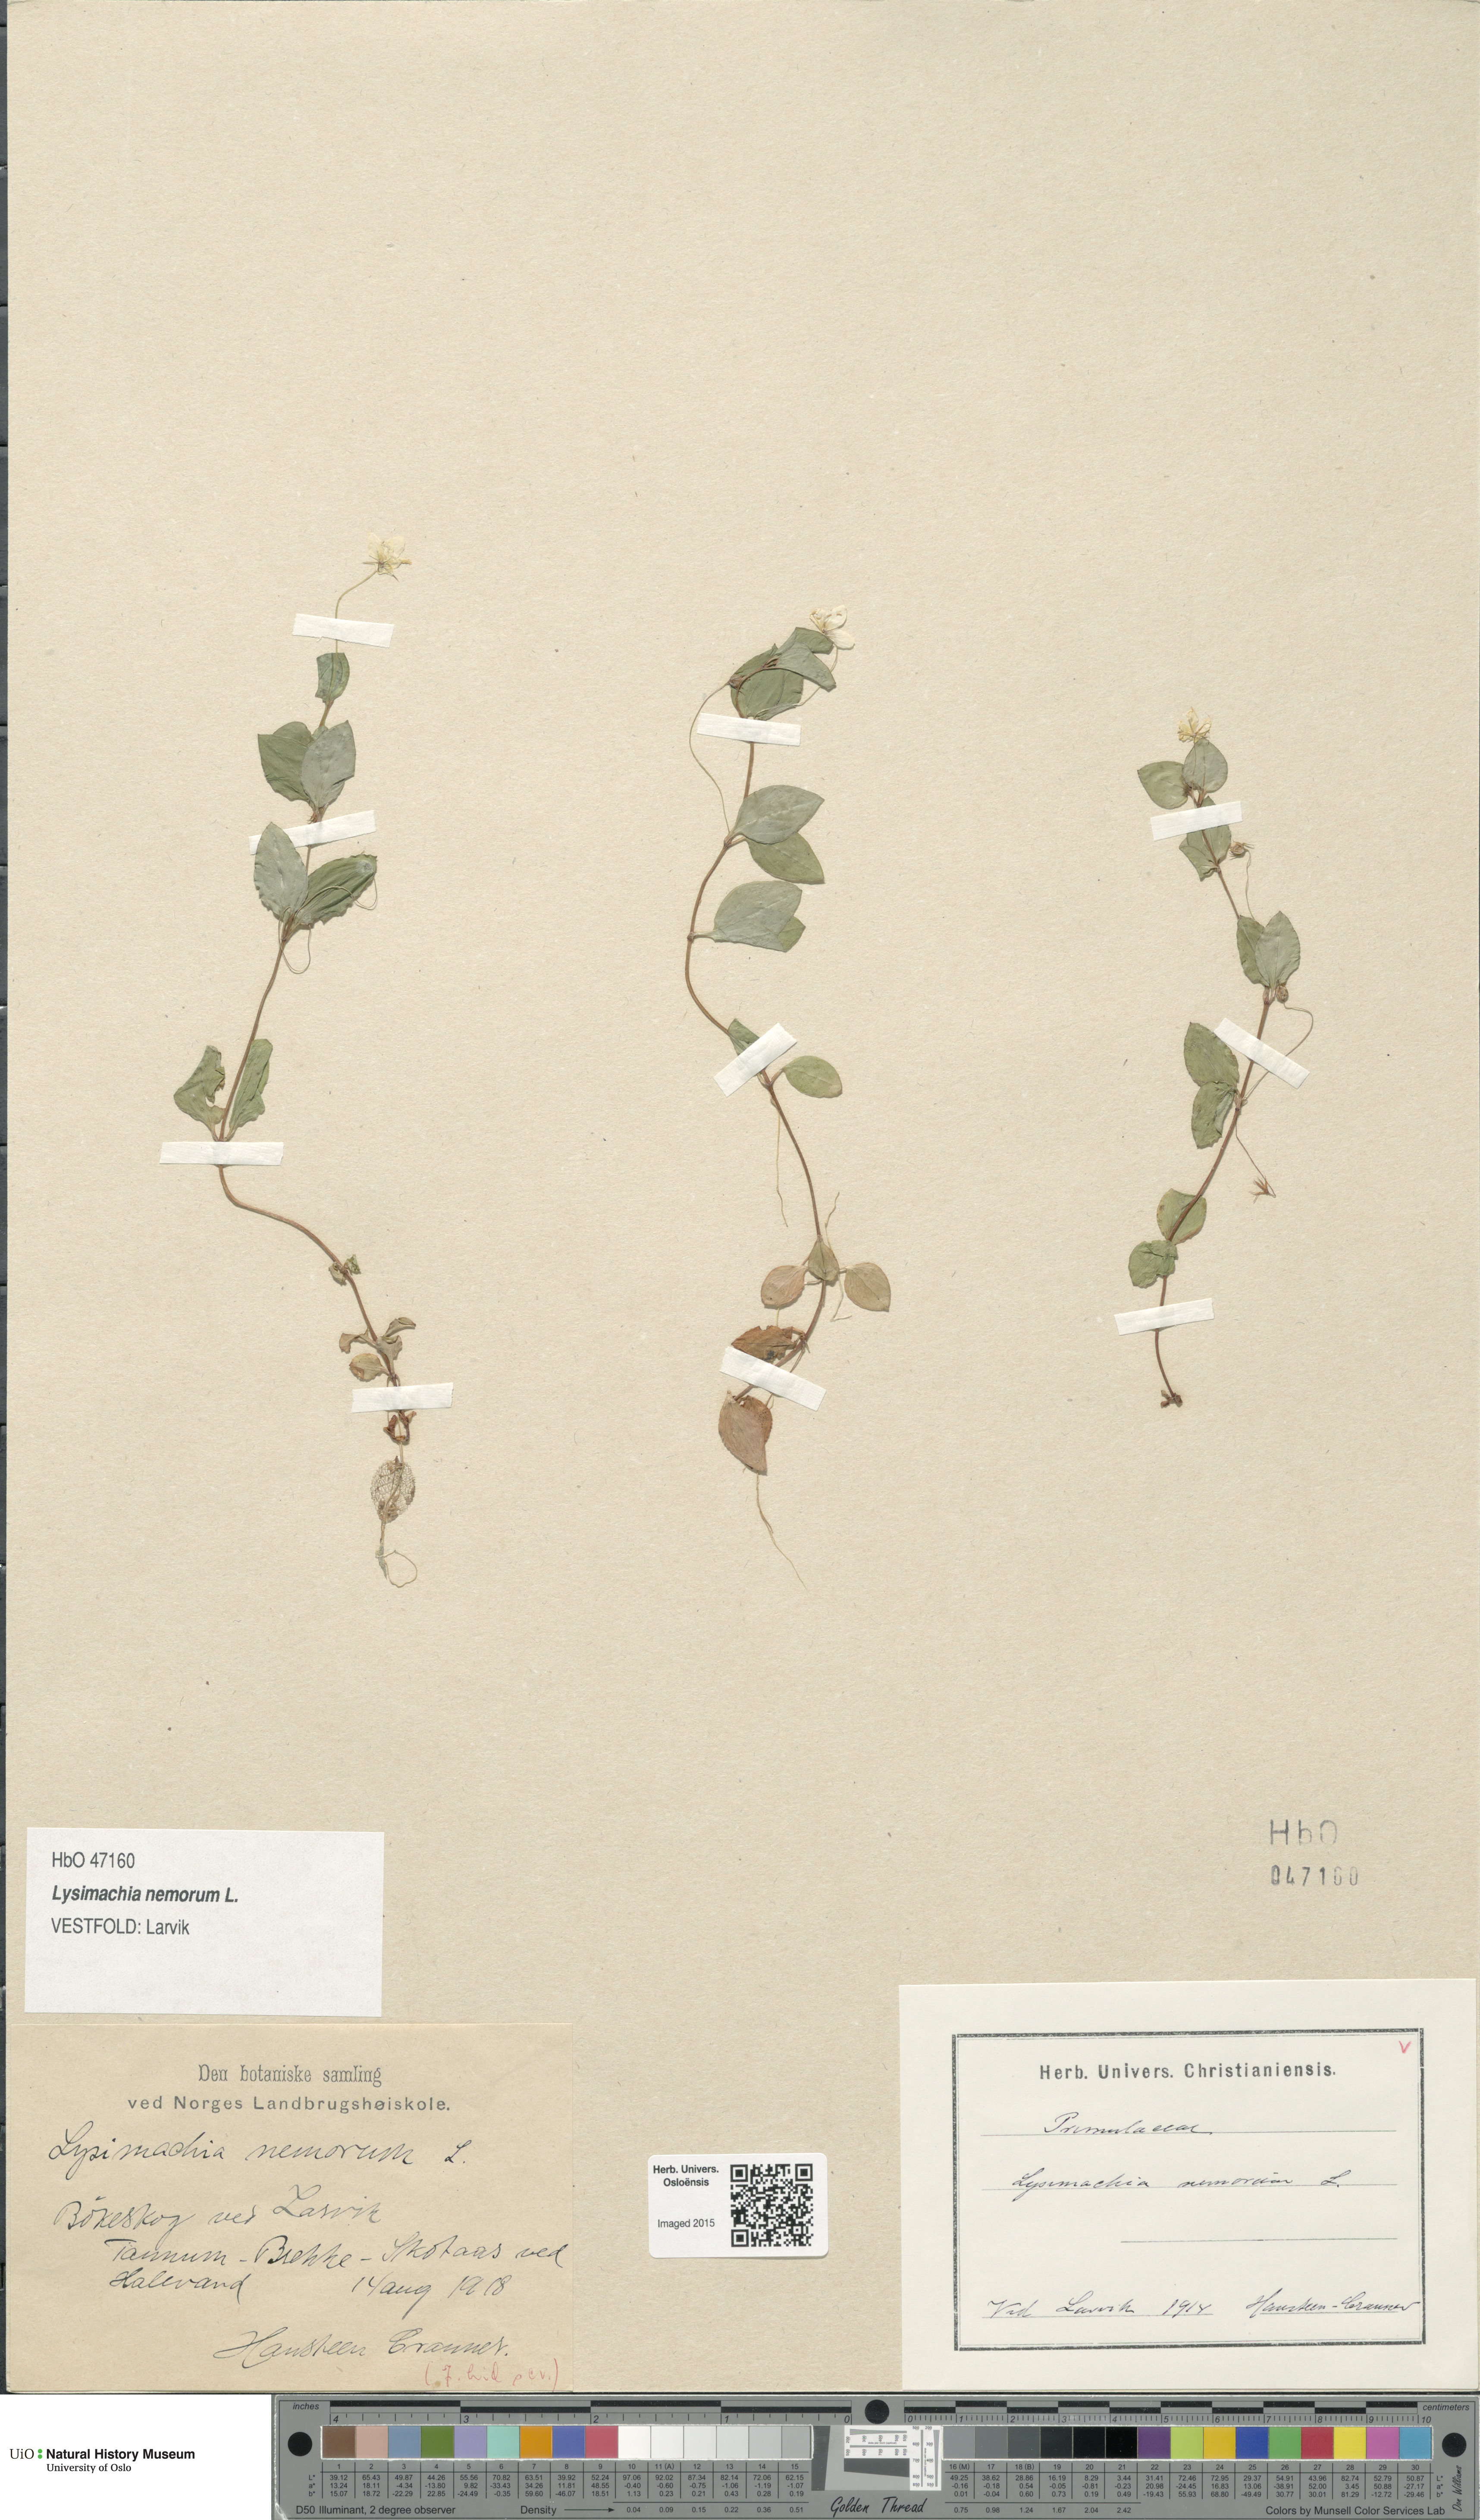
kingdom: Plantae
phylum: Tracheophyta
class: Magnoliopsida
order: Ericales
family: Primulaceae
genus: Lysimachia
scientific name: Lysimachia nemorum
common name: Yellow pimpernel
